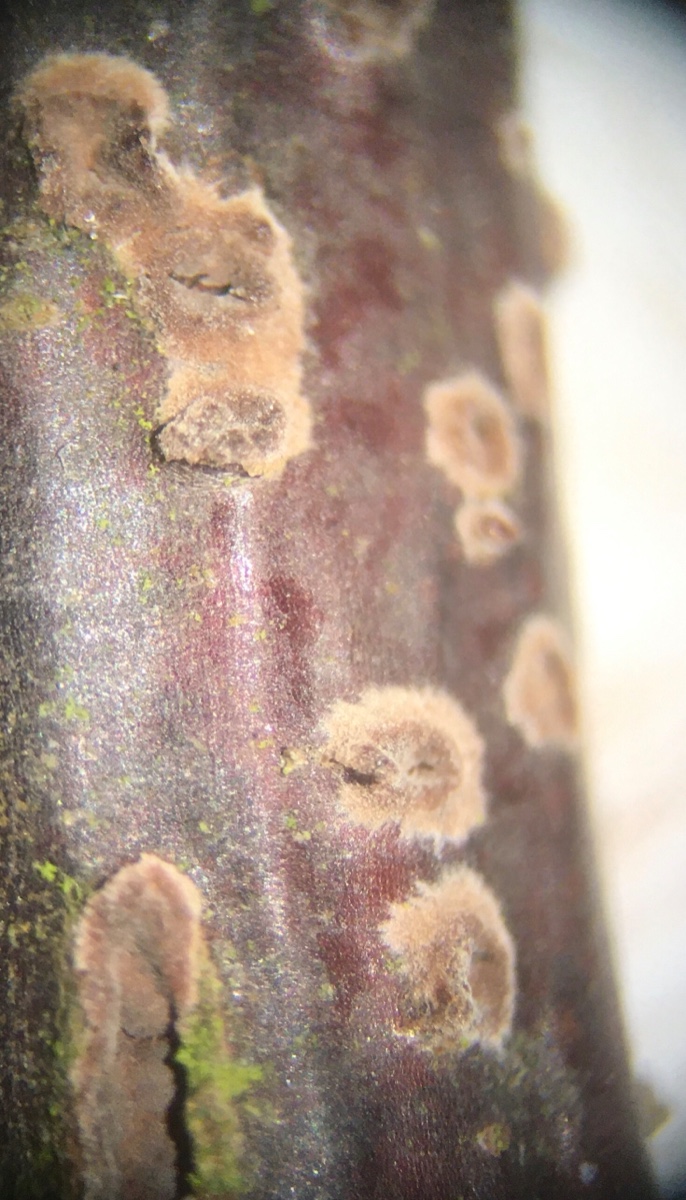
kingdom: Fungi
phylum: Basidiomycota
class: Agaricomycetes
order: Corticiales
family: Corticiaceae
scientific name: Corticiaceae
